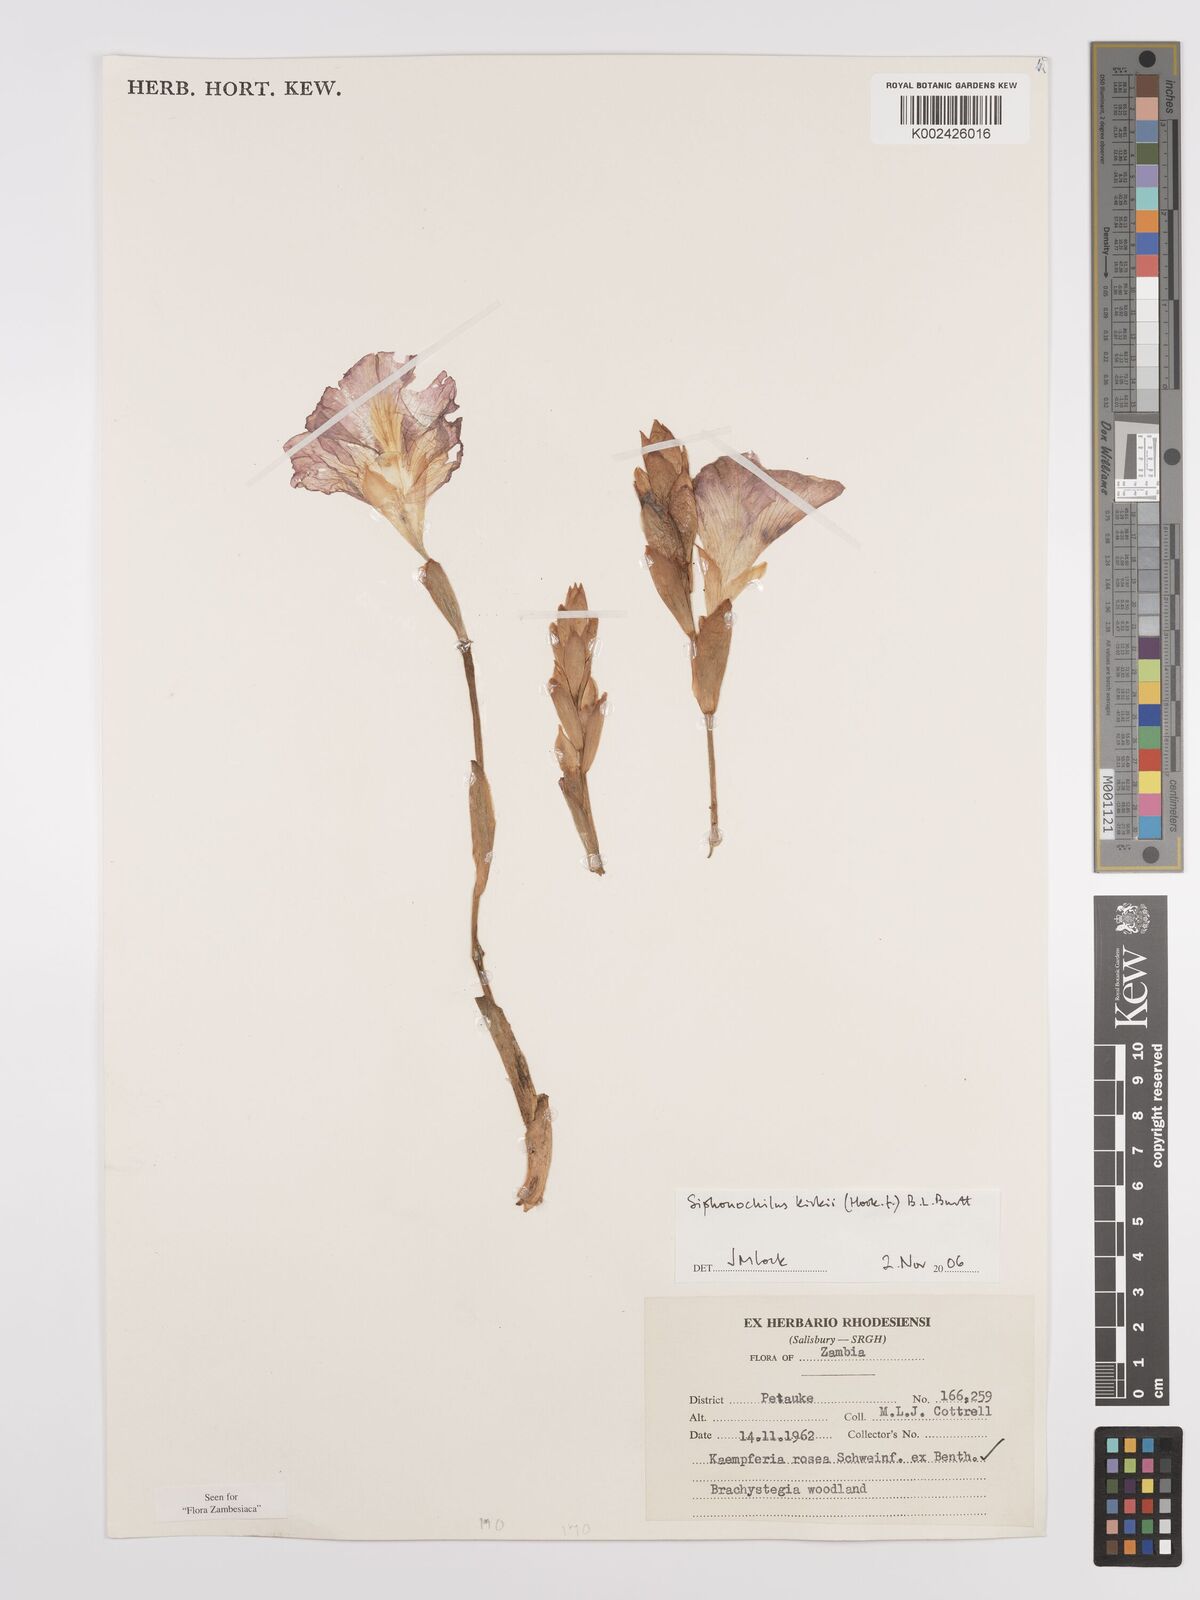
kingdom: Plantae
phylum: Tracheophyta
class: Liliopsida
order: Zingiberales
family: Zingiberaceae
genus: Siphonochilus
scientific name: Siphonochilus kirkii
